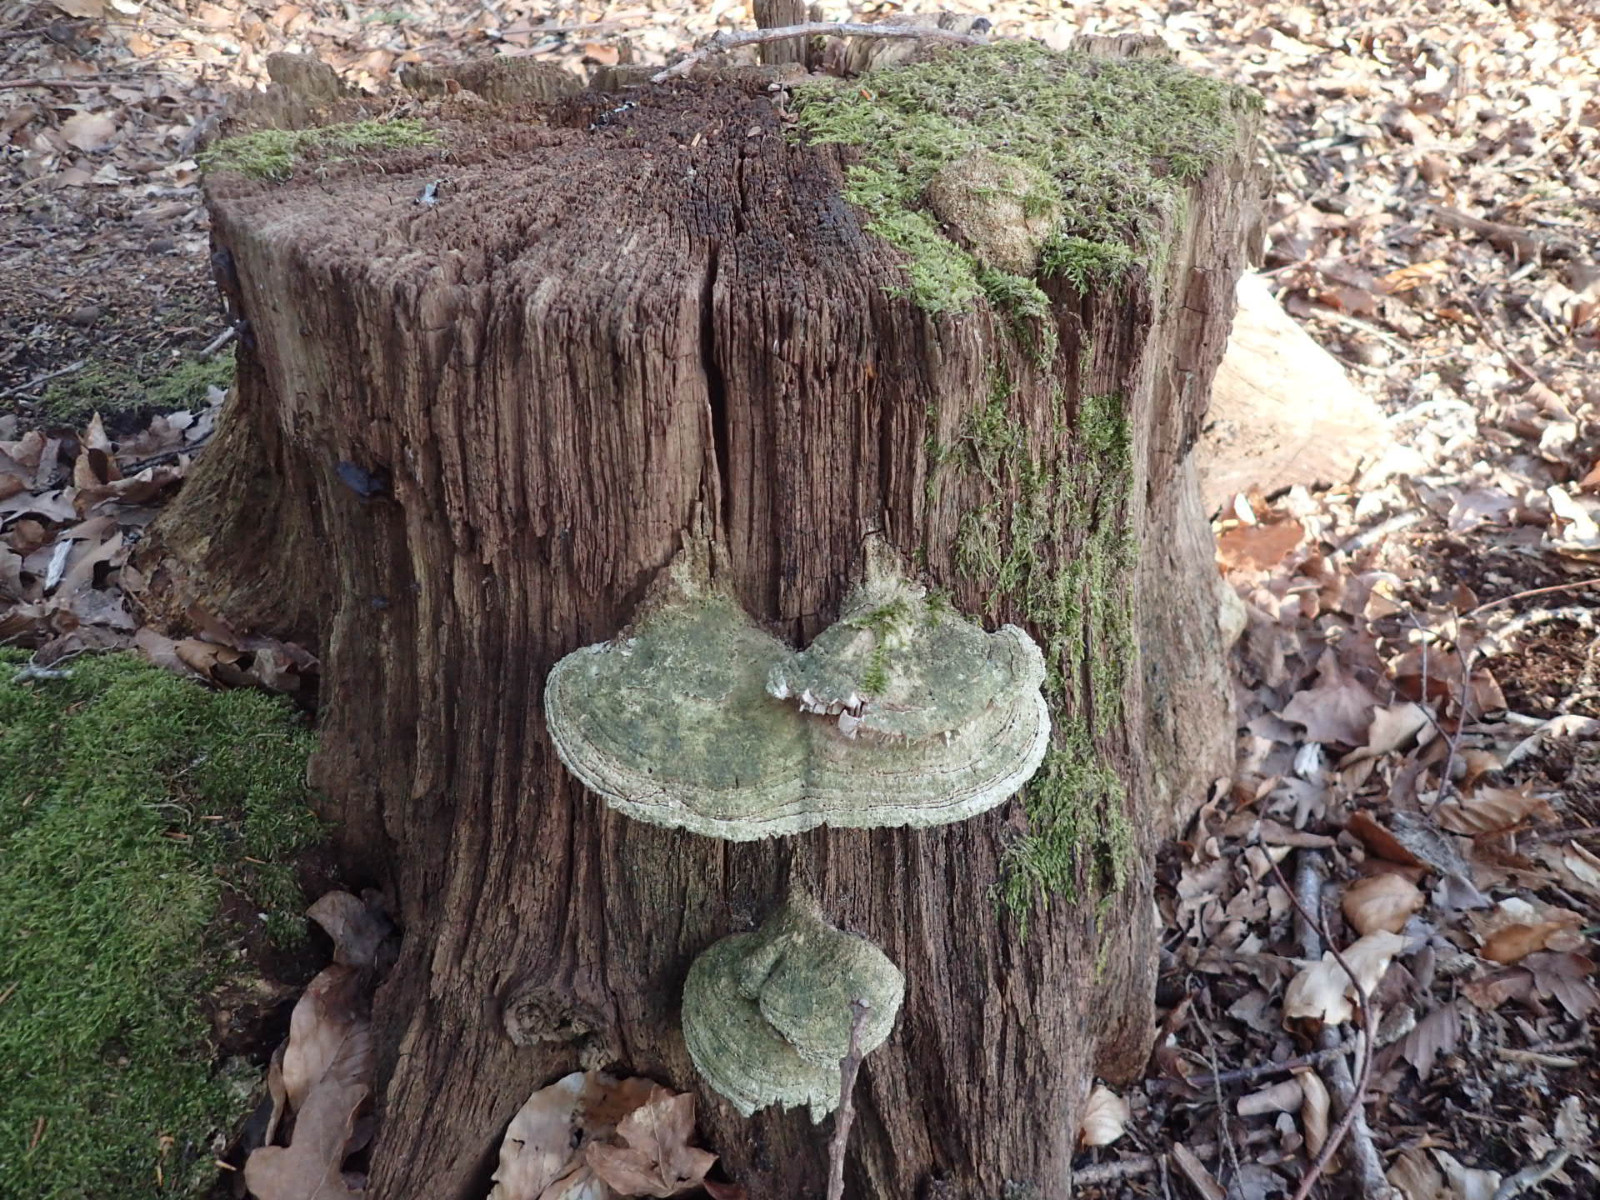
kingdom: Fungi
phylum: Basidiomycota
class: Agaricomycetes
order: Polyporales
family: Fomitopsidaceae
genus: Daedalea
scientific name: Daedalea quercina
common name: ege-labyrintsvamp
